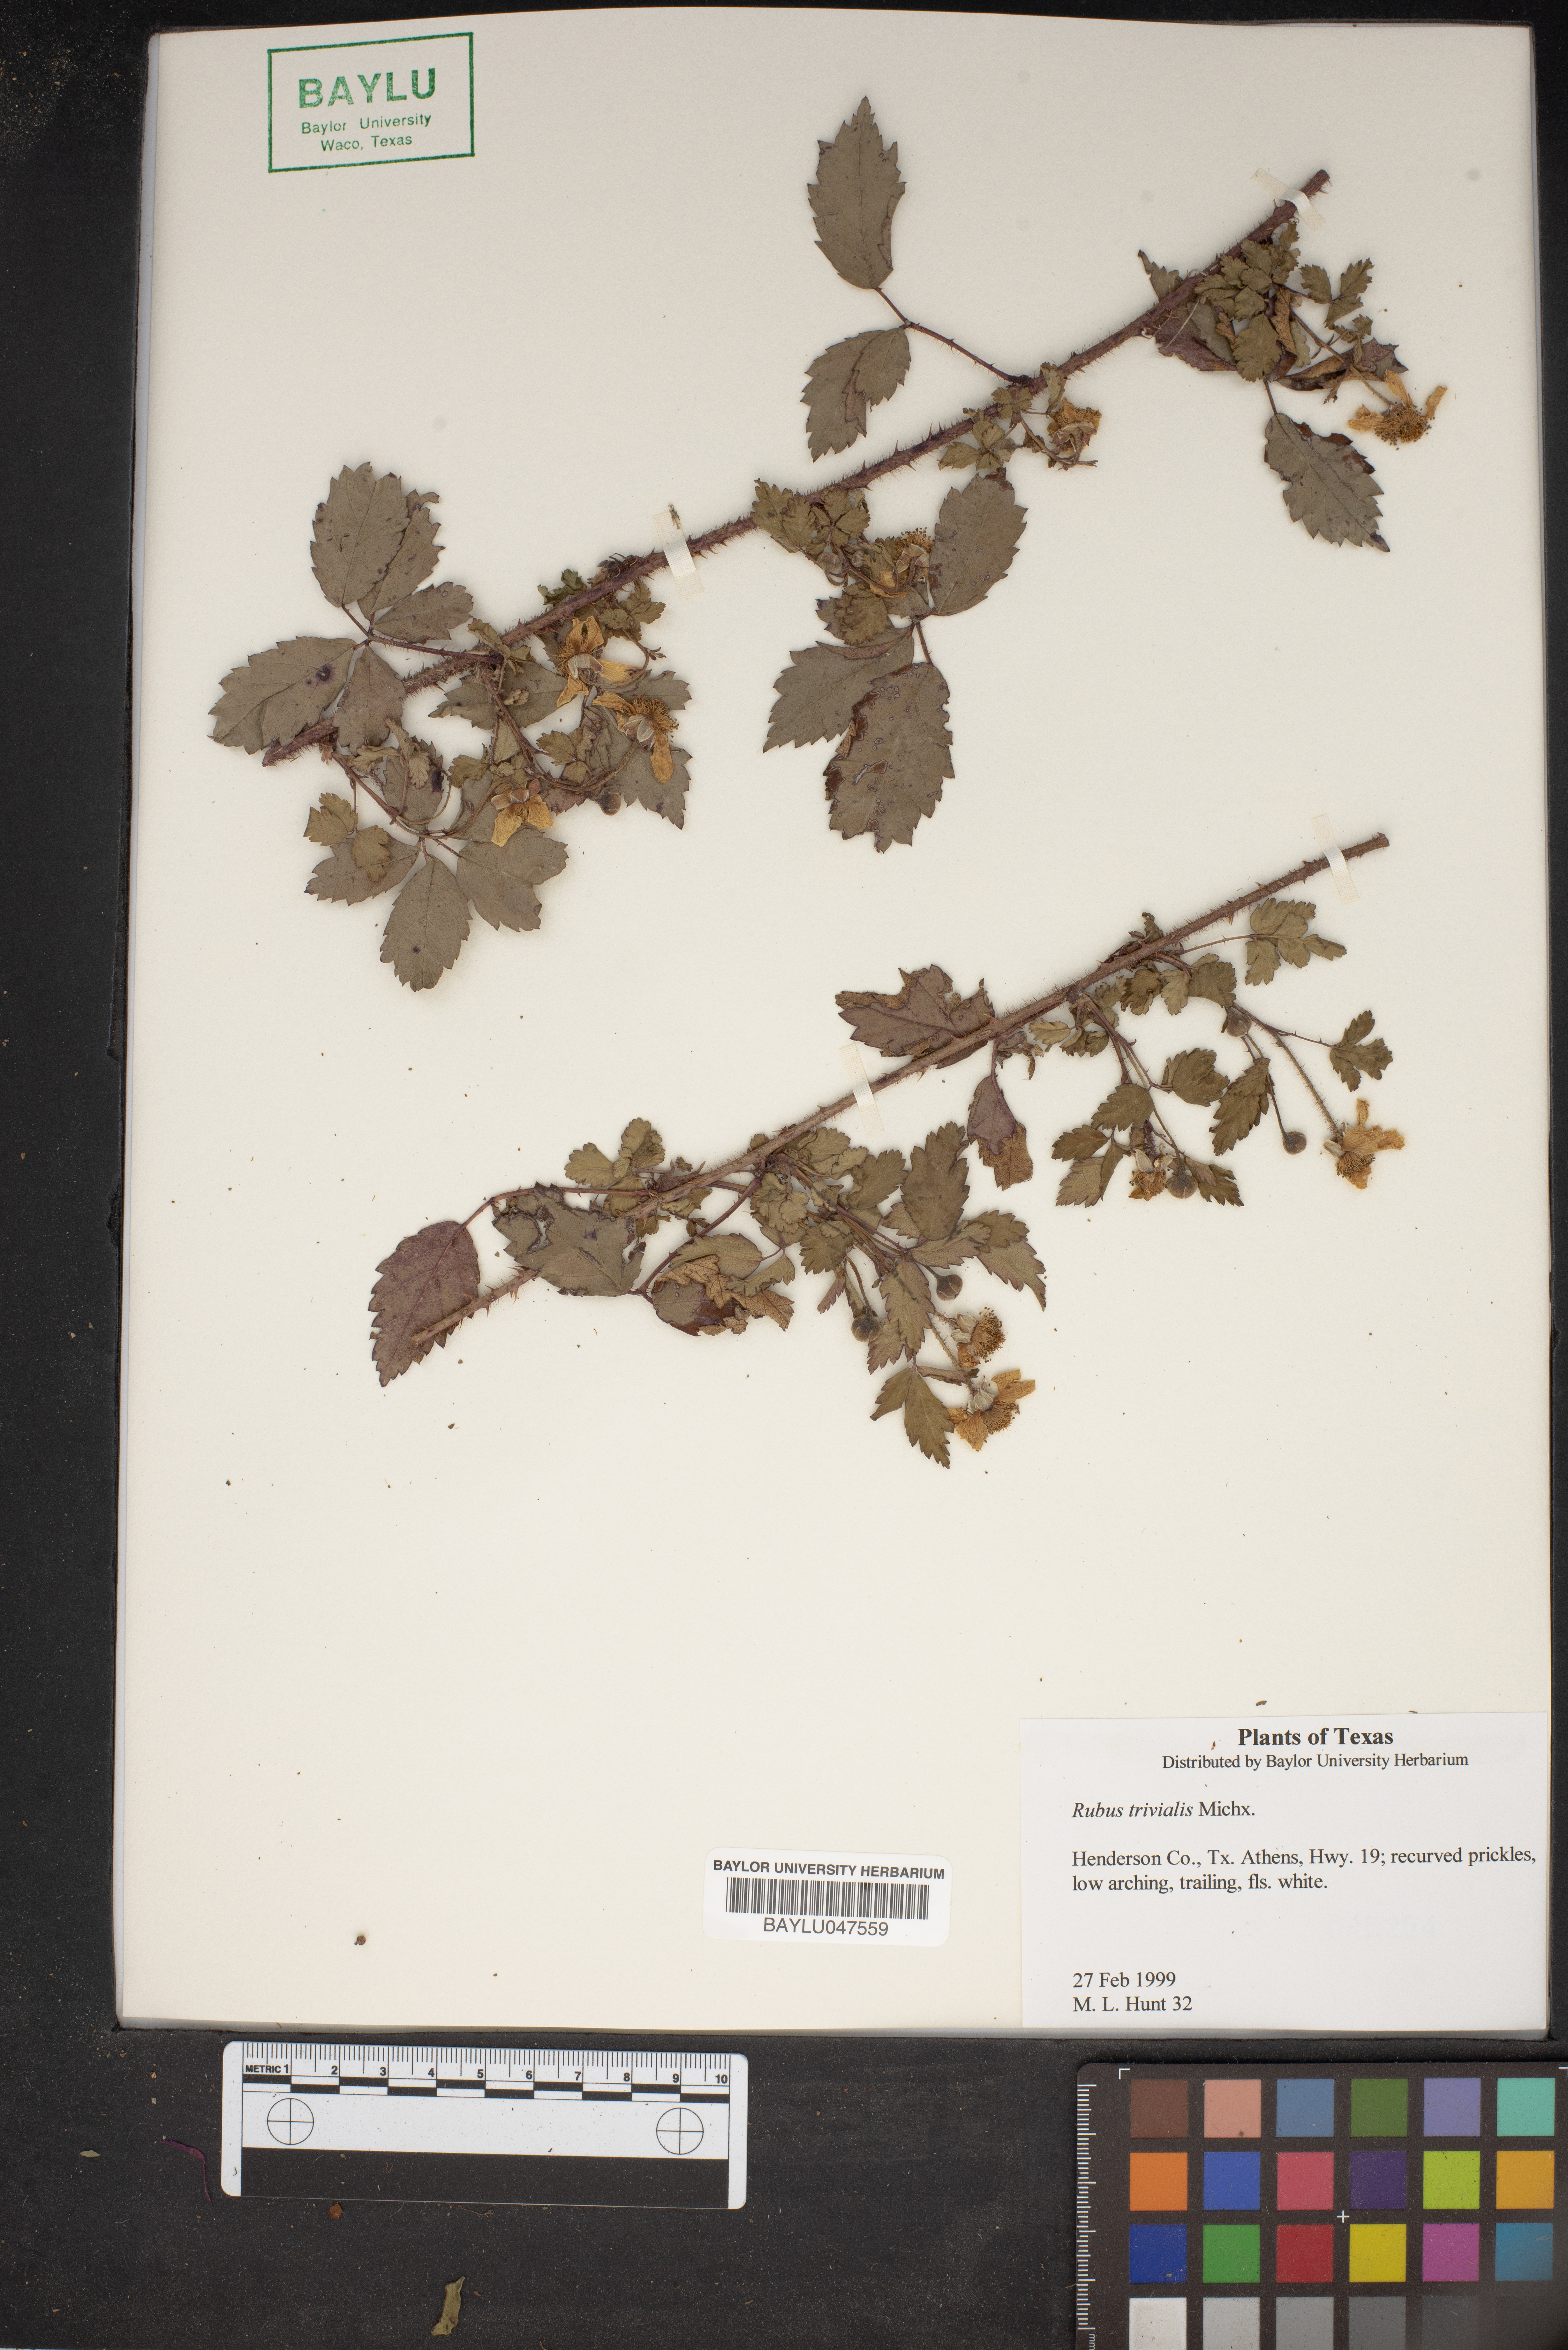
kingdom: Plantae
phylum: Tracheophyta
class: Magnoliopsida
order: Rosales
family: Rosaceae
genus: Rubus
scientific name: Rubus trivialis
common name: Southern dewberry
